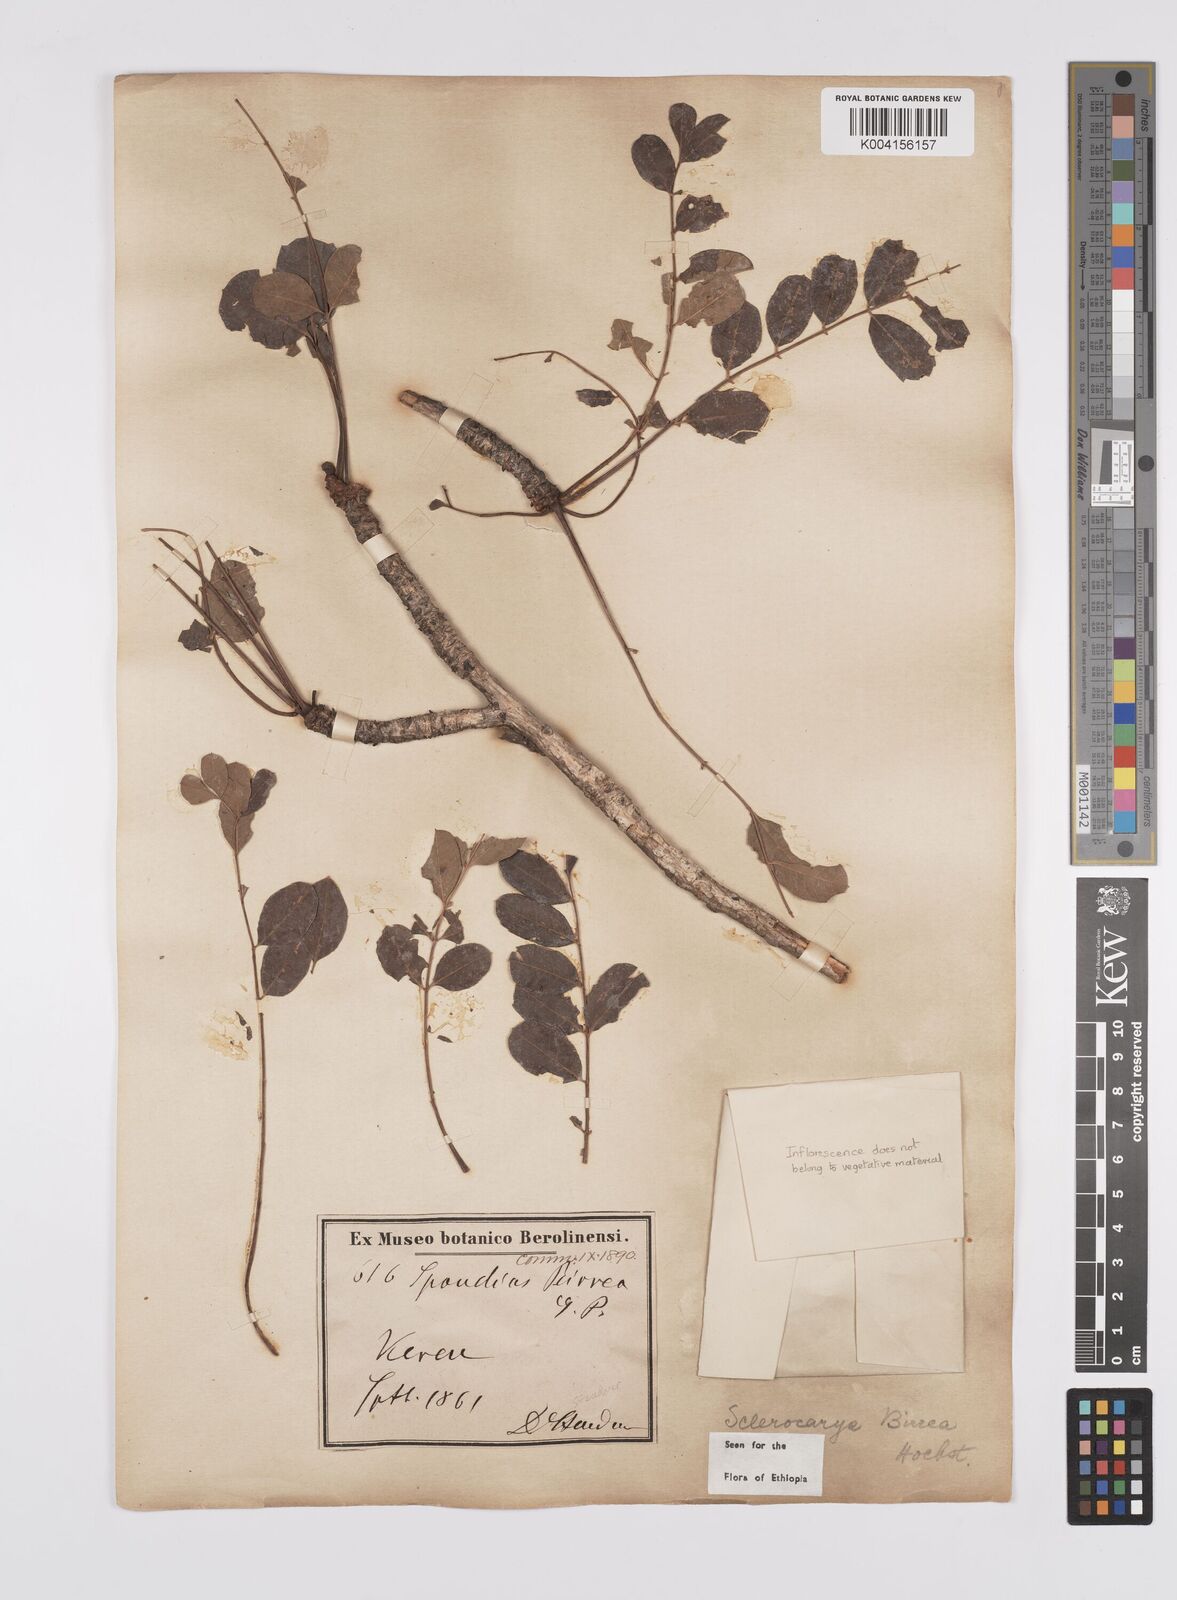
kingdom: Plantae
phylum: Tracheophyta
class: Magnoliopsida
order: Sapindales
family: Anacardiaceae
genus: Sclerocarya
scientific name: Sclerocarya birrea
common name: Marula
